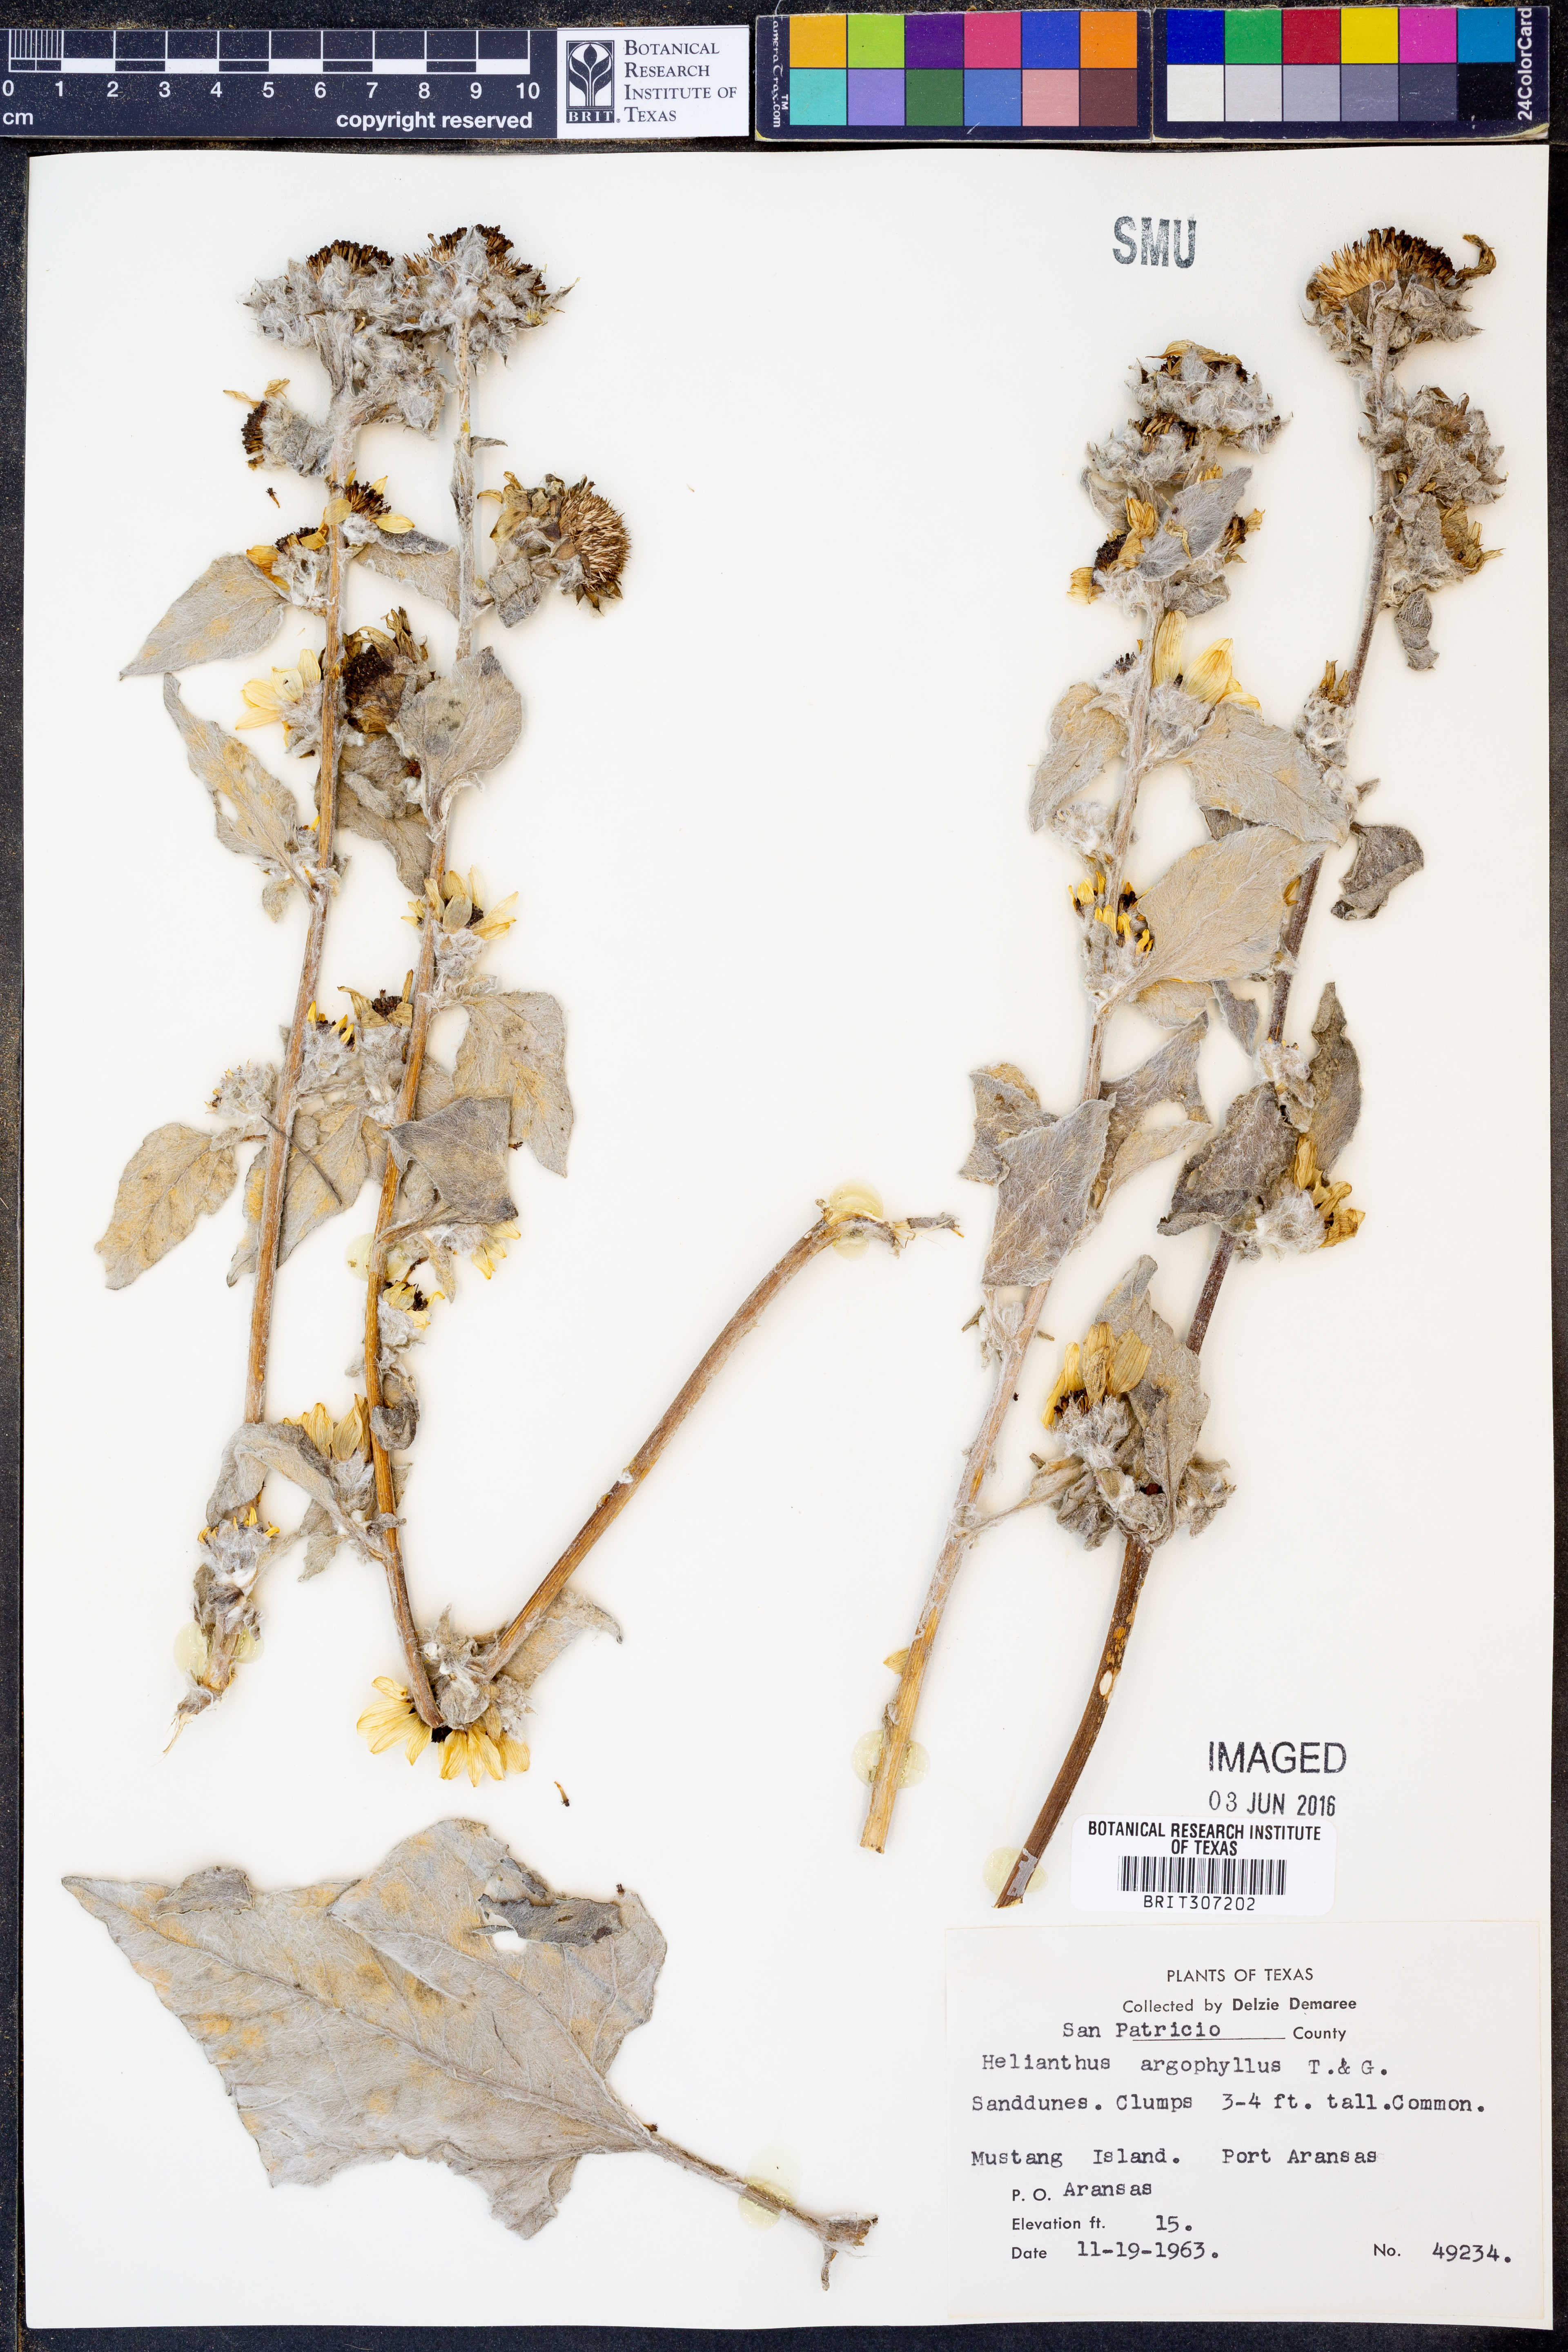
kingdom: Plantae
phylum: Tracheophyta
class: Magnoliopsida
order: Asterales
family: Asteraceae
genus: Helianthus
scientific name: Helianthus argophyllus
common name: Silverleaf sunflower
